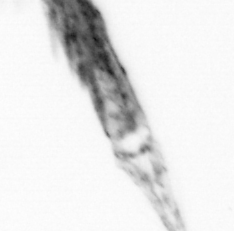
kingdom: Animalia
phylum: Arthropoda
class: Copepoda
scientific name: Copepoda
